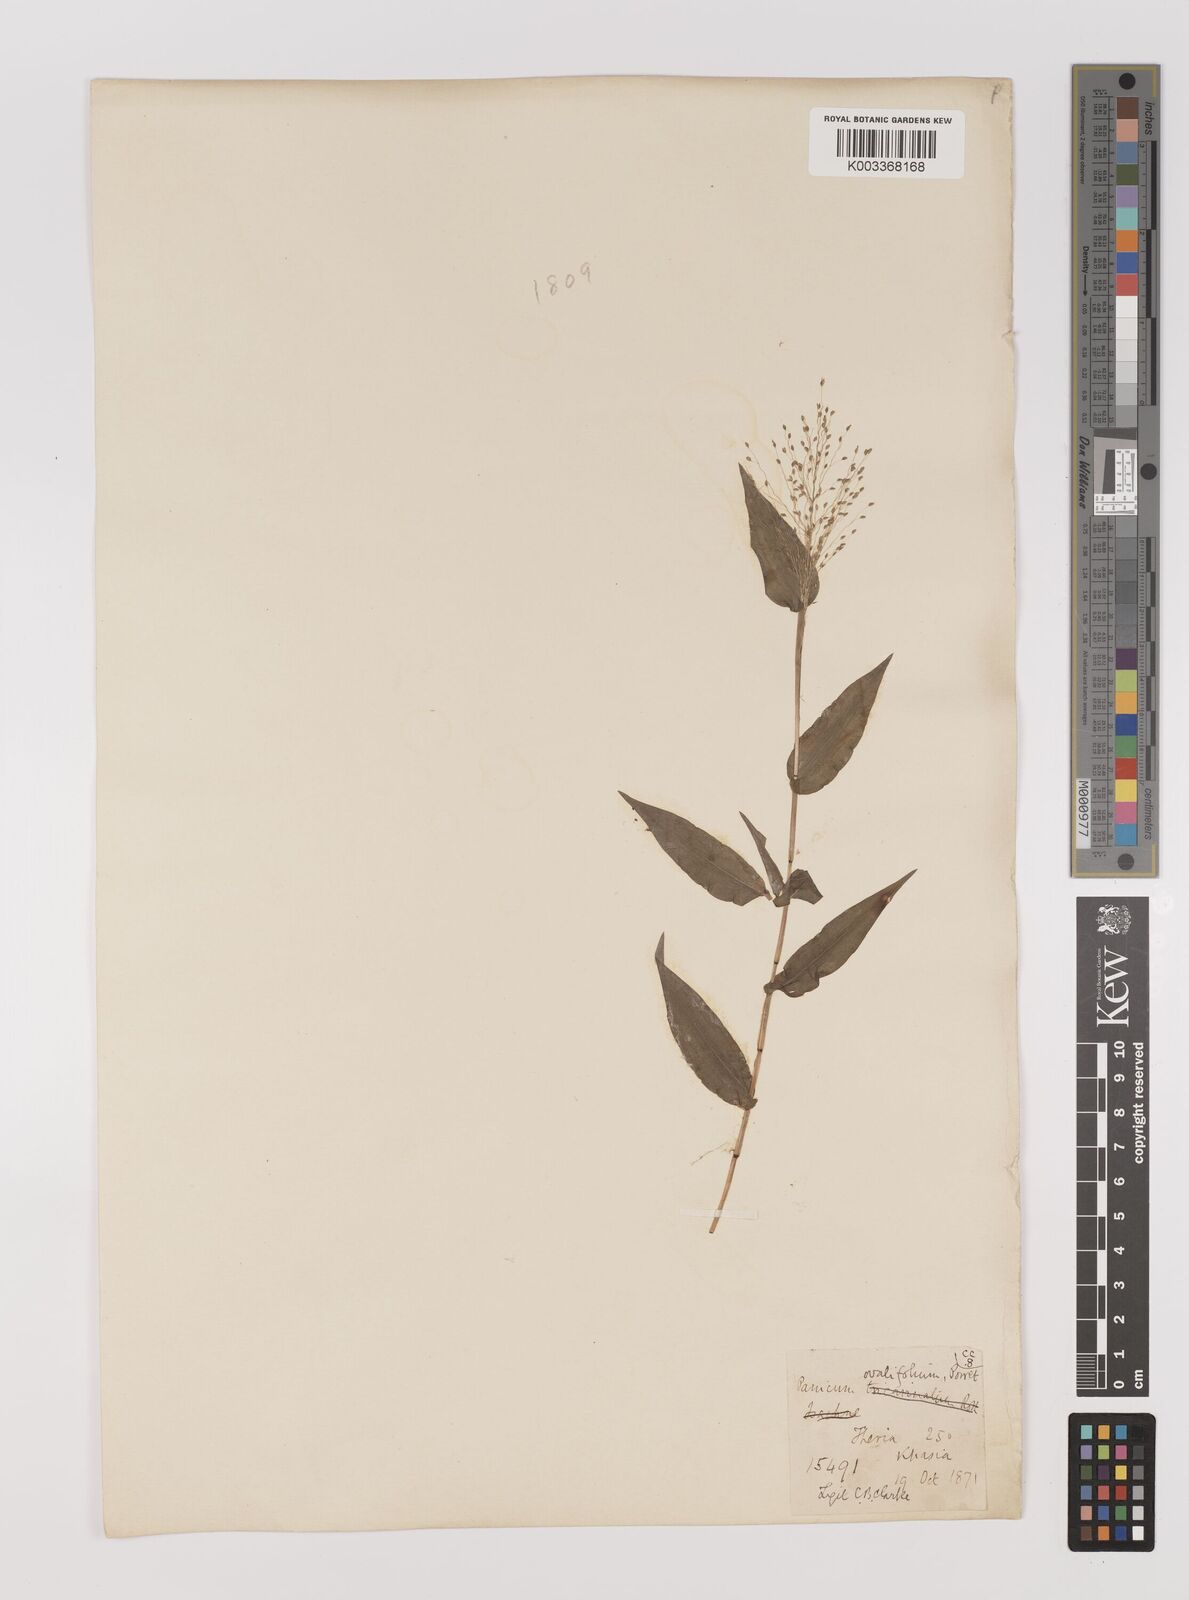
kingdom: Plantae
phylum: Tracheophyta
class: Liliopsida
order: Poales
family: Poaceae
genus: Panicum
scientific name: Panicum brevifolium
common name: Shortleaf panic grass
